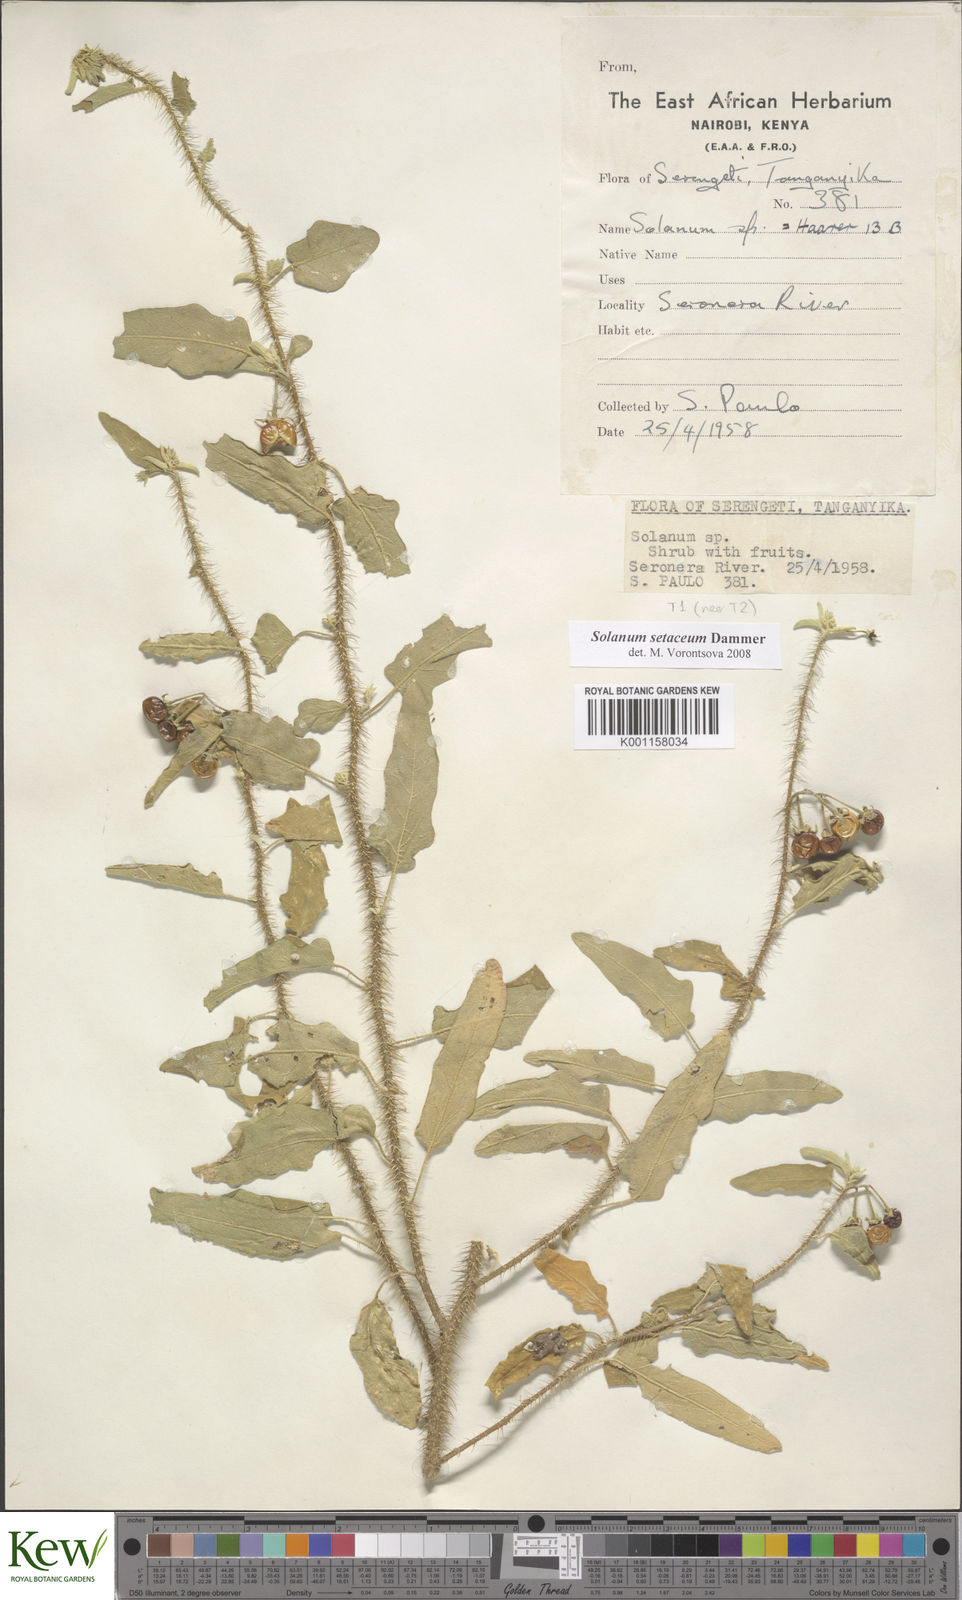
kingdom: Plantae
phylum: Tracheophyta
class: Magnoliopsida
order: Solanales
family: Solanaceae
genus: Solanum
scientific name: Solanum setaceum
